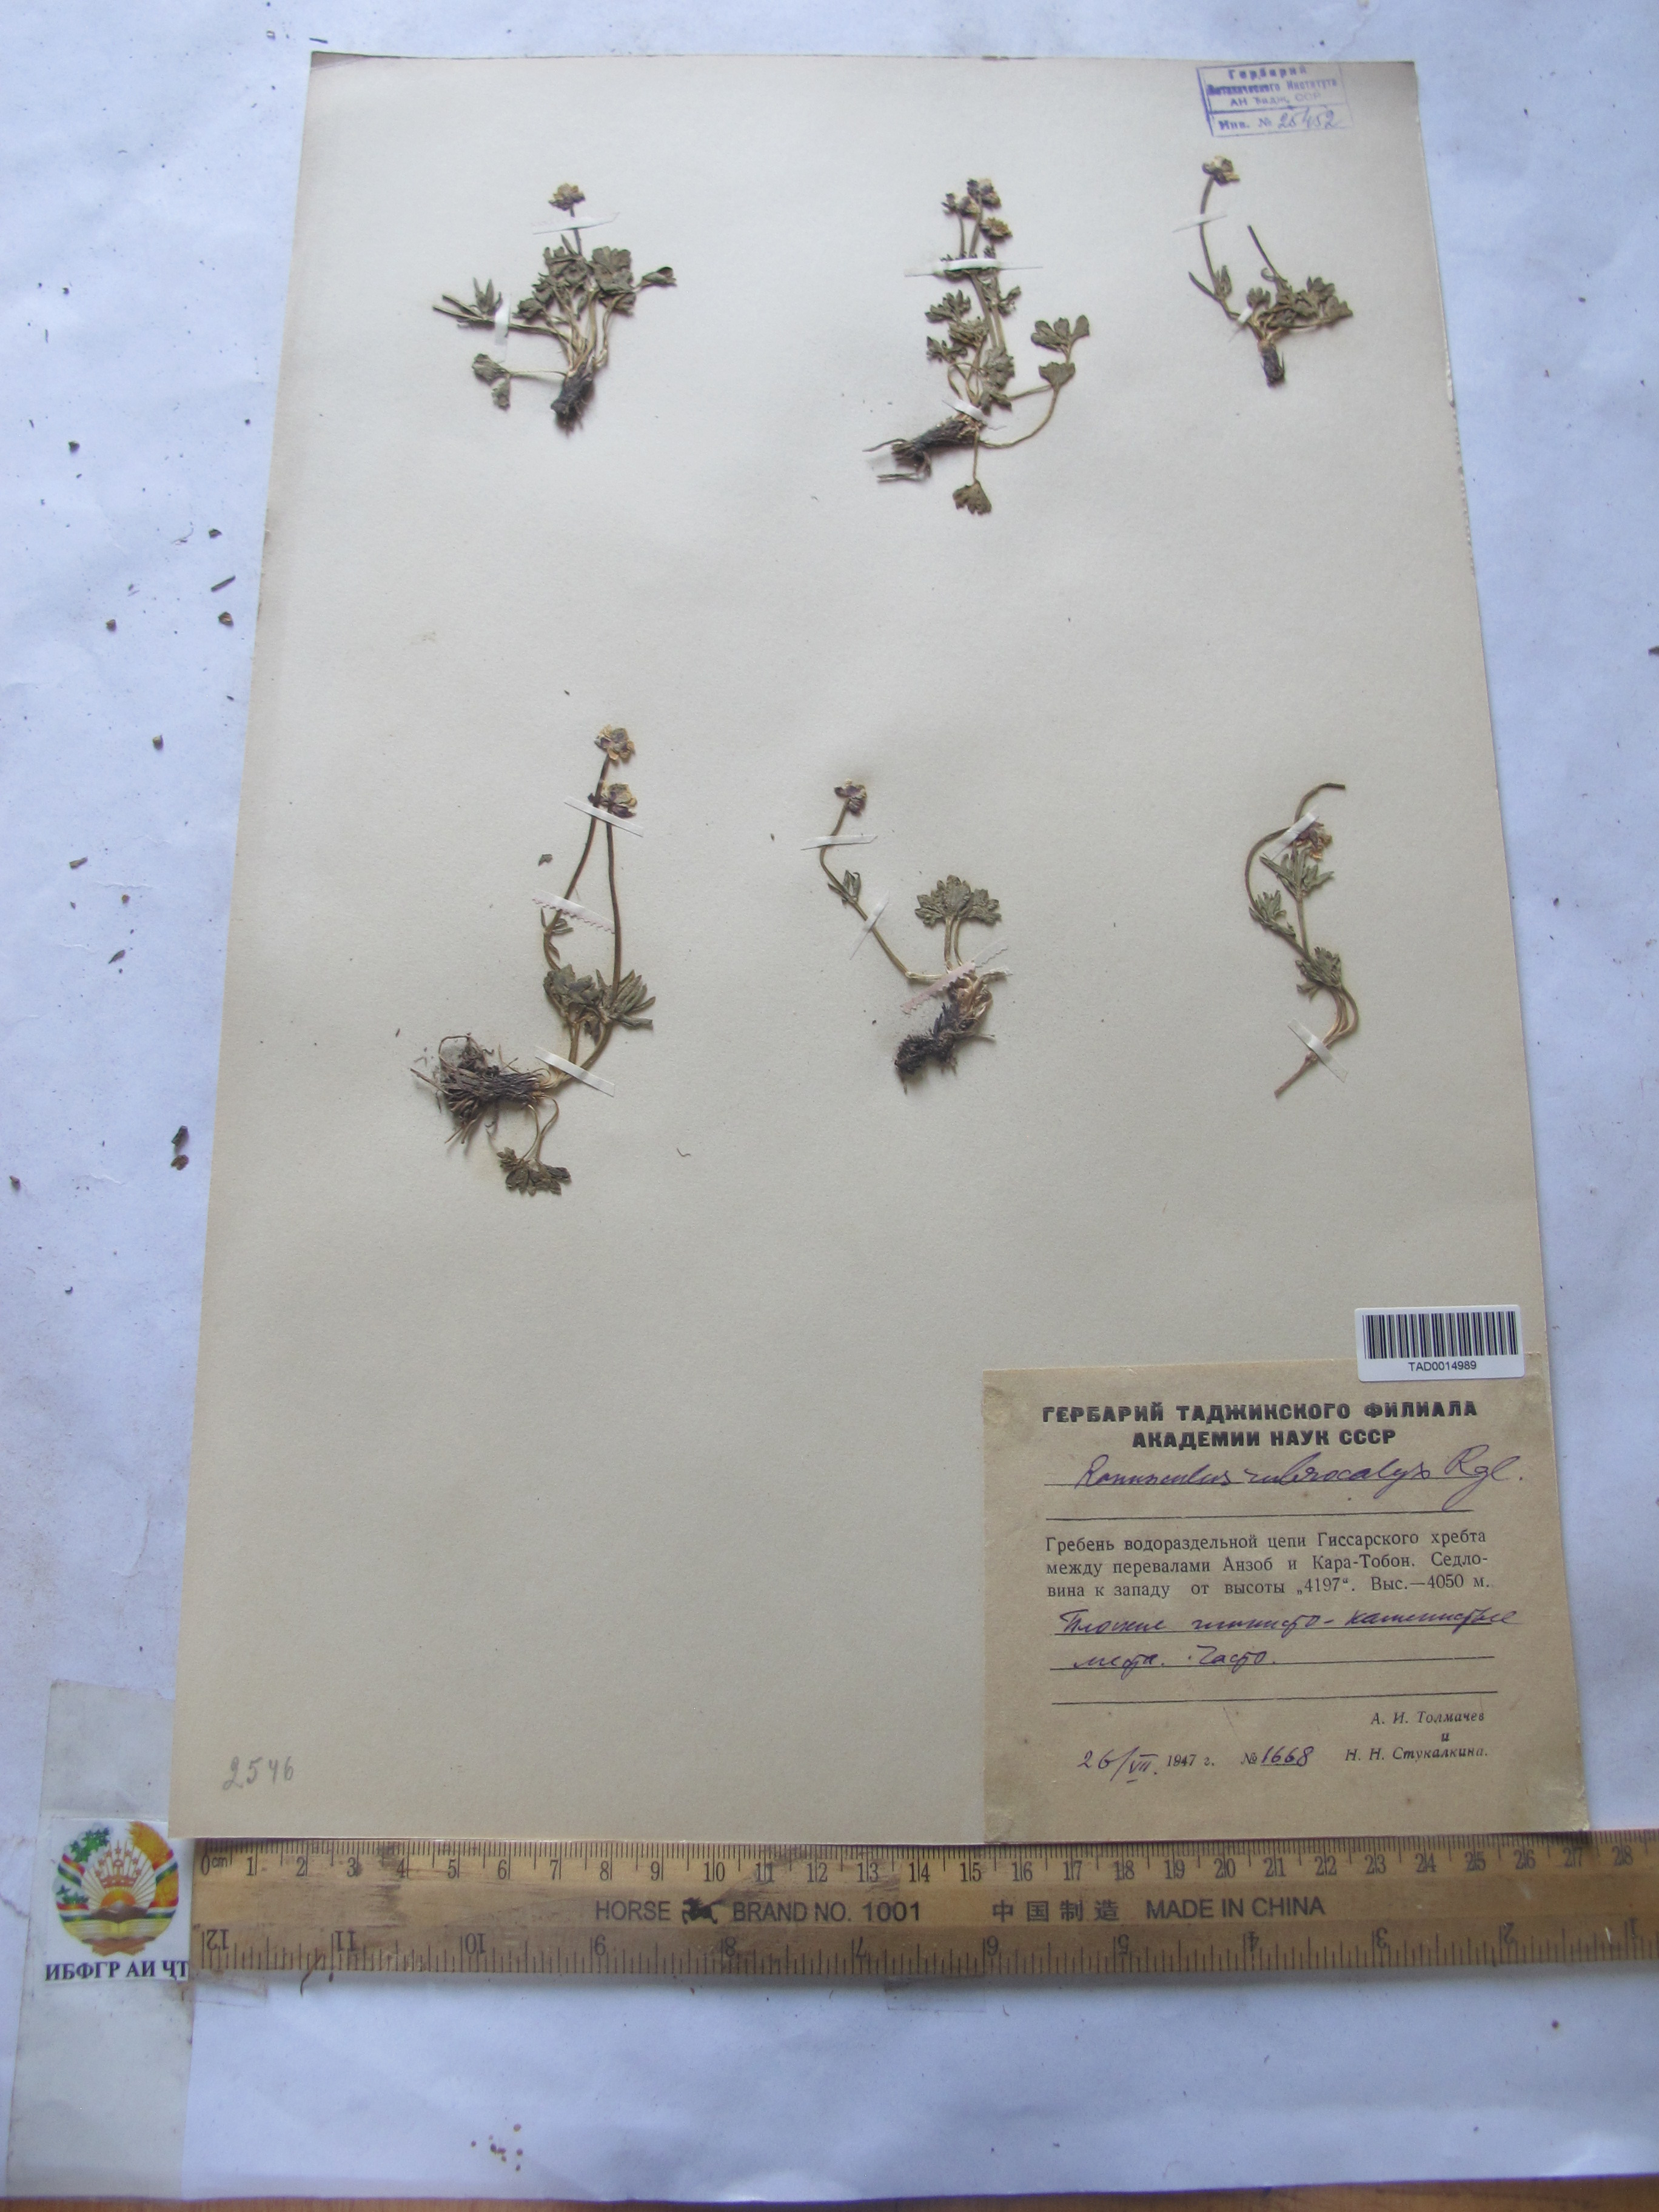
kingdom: Plantae
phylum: Tracheophyta
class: Magnoliopsida
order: Ranunculales
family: Ranunculaceae
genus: Ranunculus
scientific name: Ranunculus rubrocalyx
